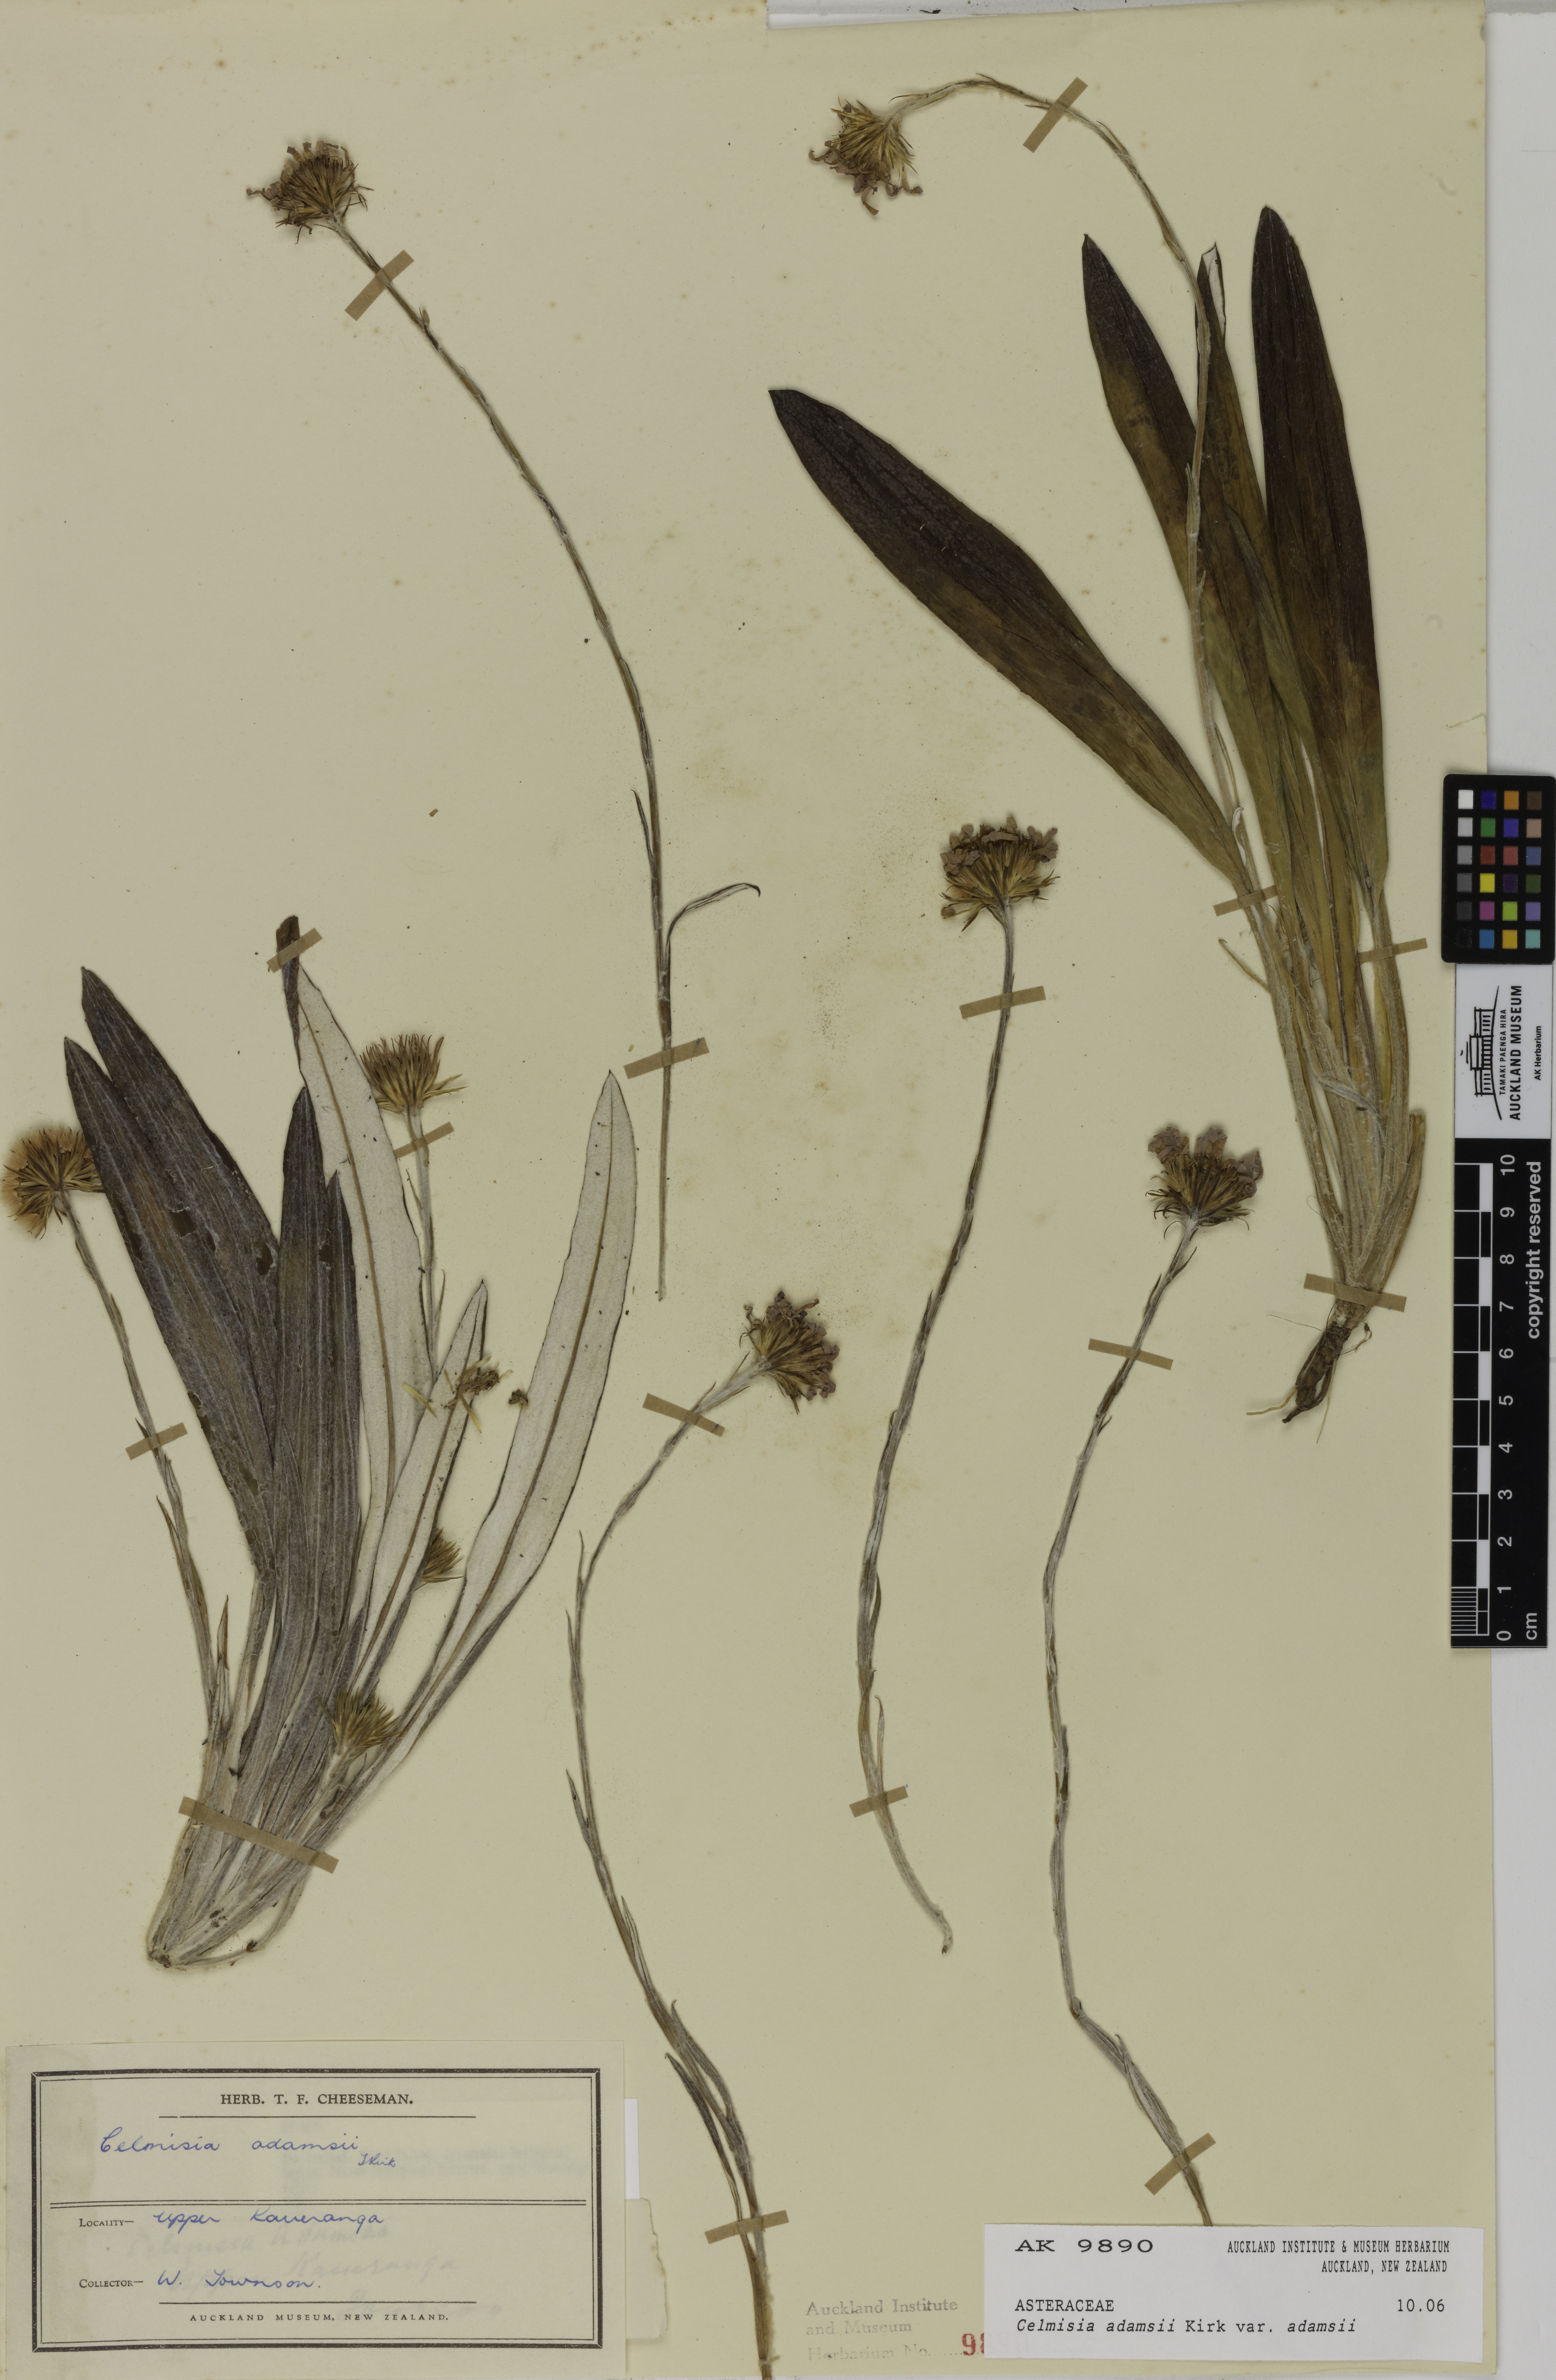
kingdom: Plantae
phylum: Tracheophyta
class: Magnoliopsida
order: Asterales
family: Asteraceae
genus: Celmisia
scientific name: Celmisia adamsii
